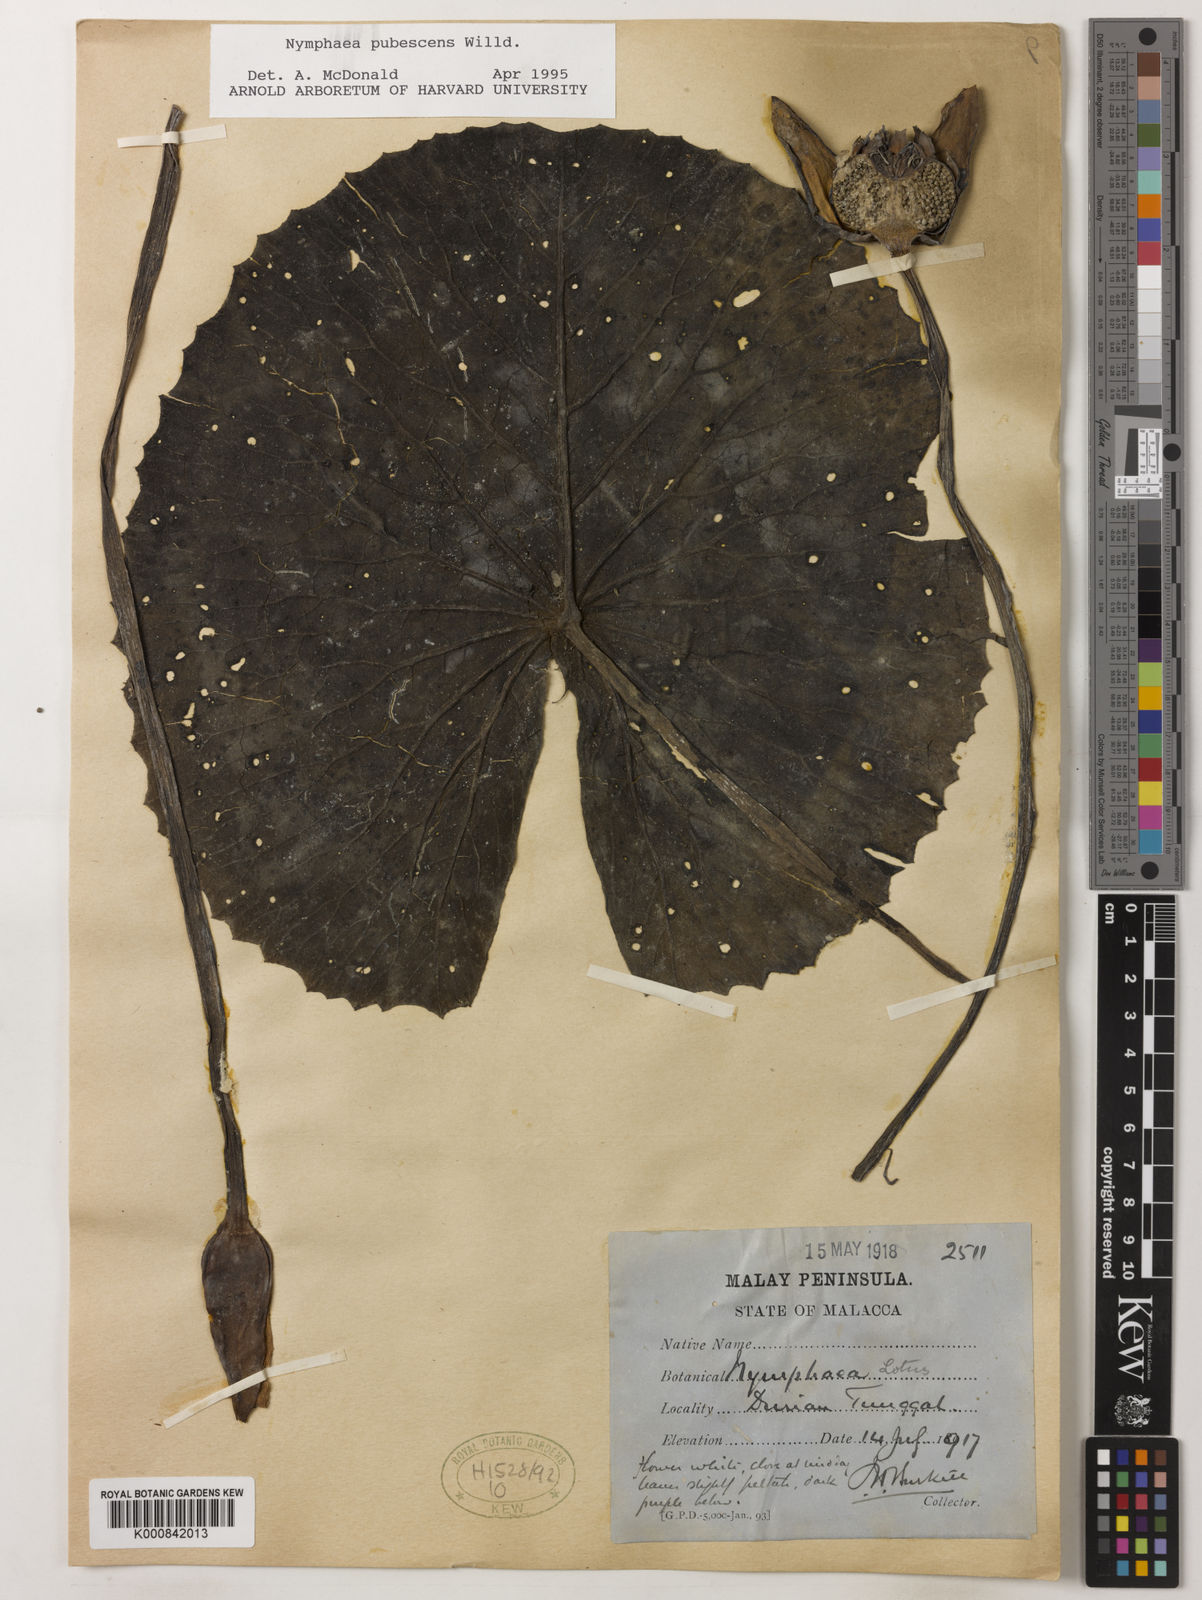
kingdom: Plantae
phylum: Tracheophyta
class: Magnoliopsida
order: Nymphaeales
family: Nymphaeaceae
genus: Nymphaea
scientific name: Nymphaea pubescens
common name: Hairy water lily
